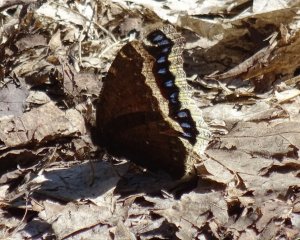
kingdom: Animalia
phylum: Arthropoda
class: Insecta
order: Lepidoptera
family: Nymphalidae
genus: Nymphalis
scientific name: Nymphalis antiopa
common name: Mourning Cloak
